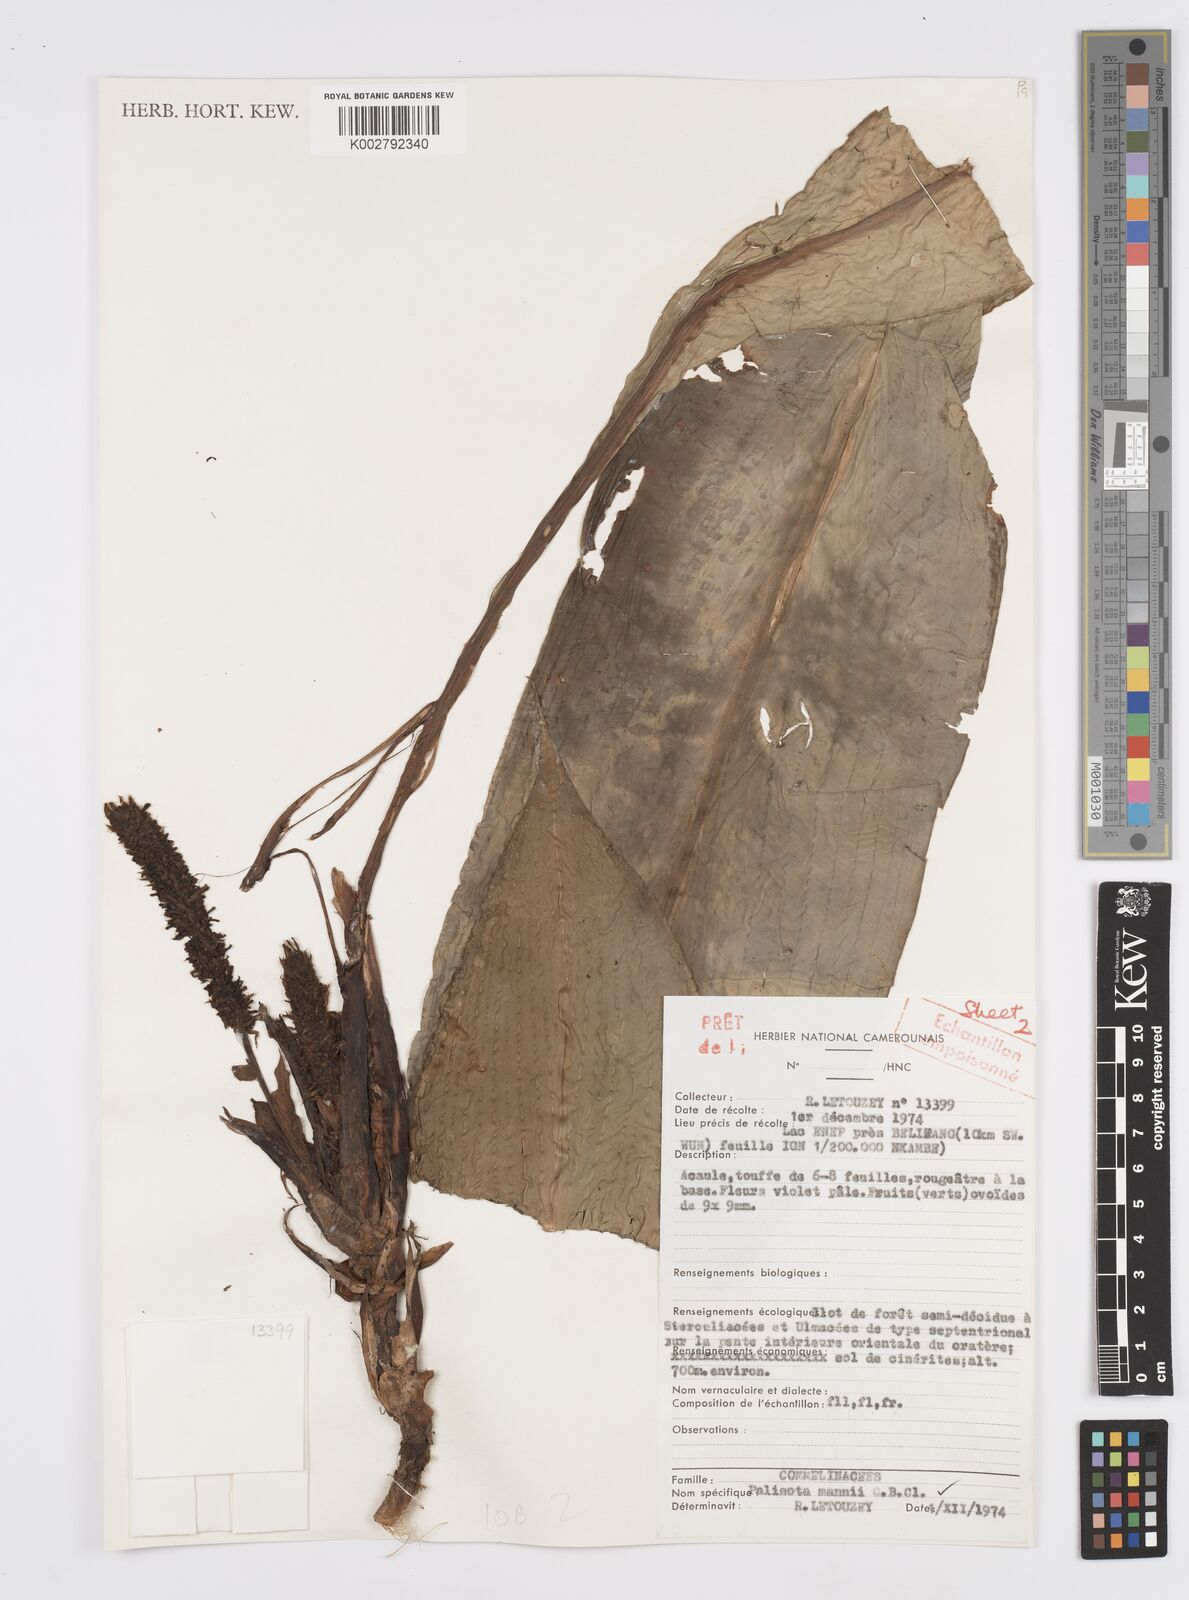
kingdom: Plantae
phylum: Tracheophyta
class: Liliopsida
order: Commelinales
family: Commelinaceae
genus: Palisota
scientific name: Palisota mannii
